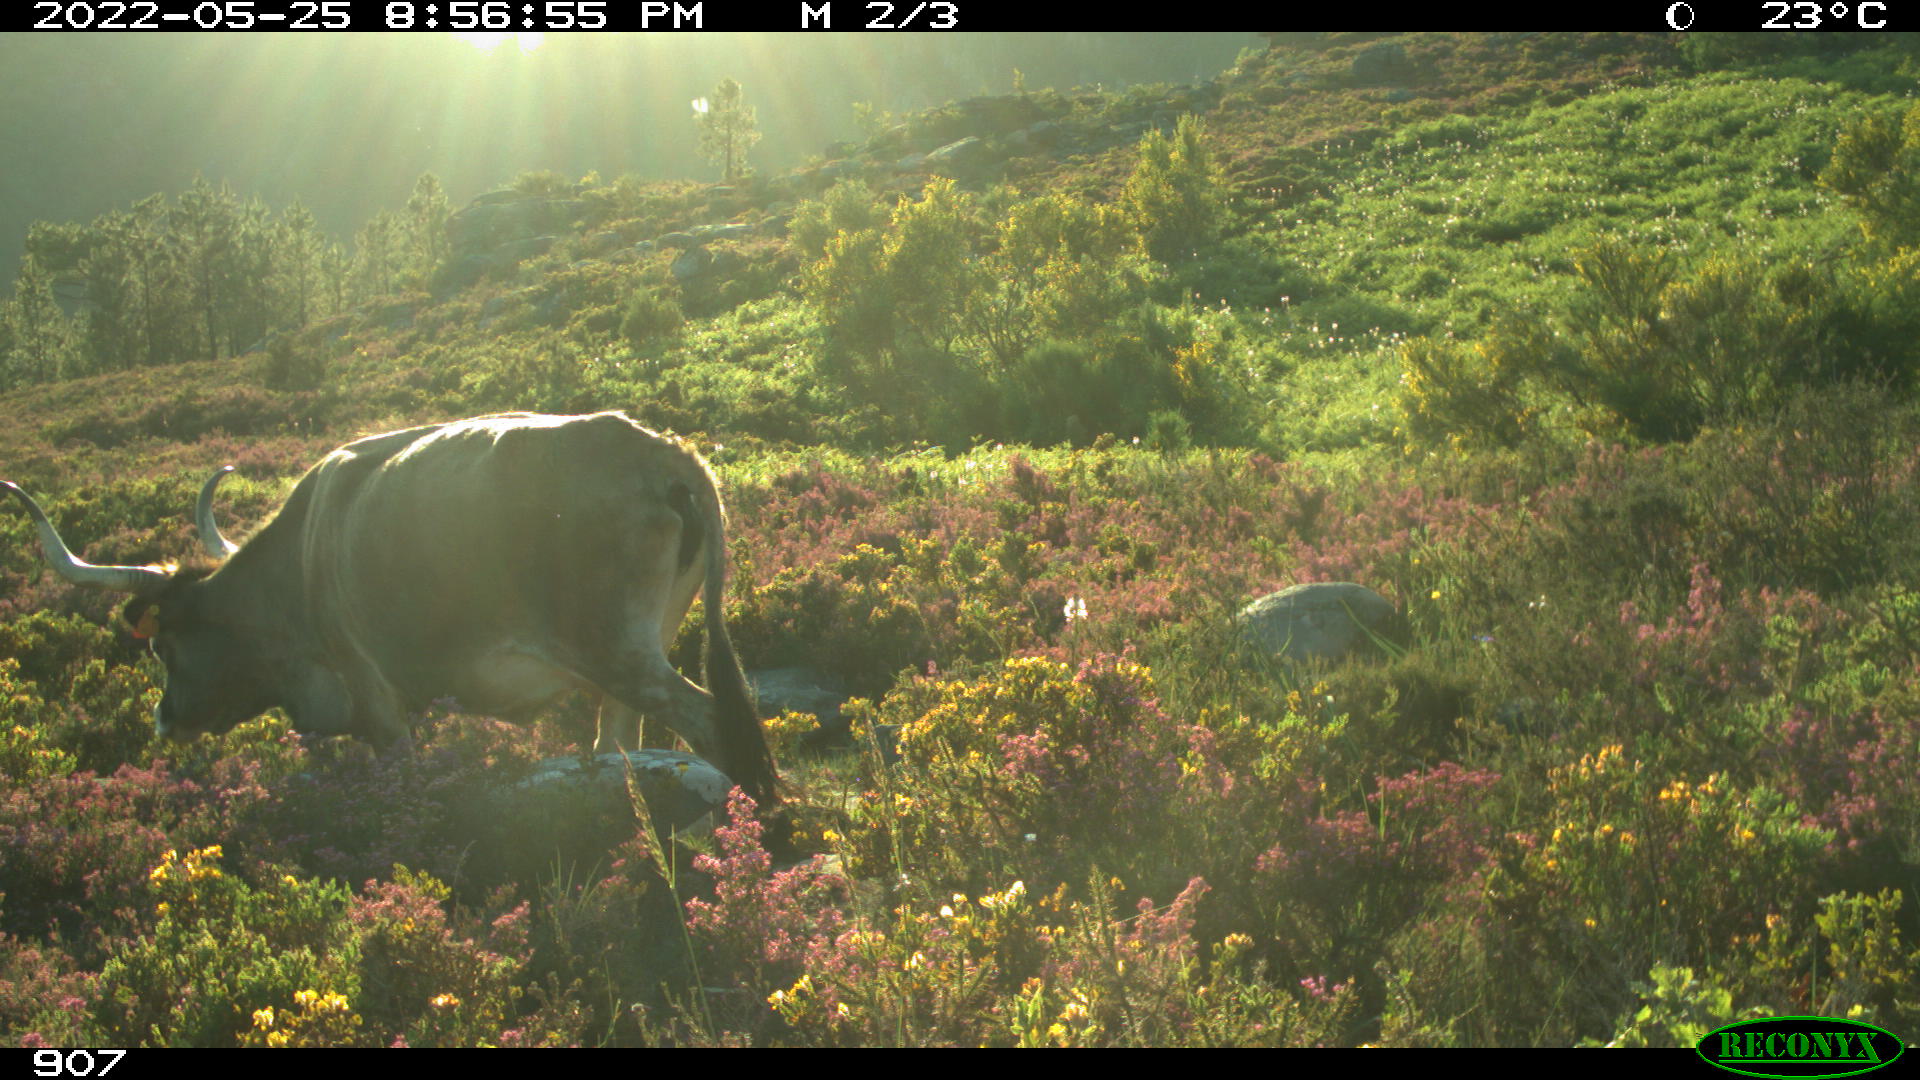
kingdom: Animalia
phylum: Chordata
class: Mammalia
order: Artiodactyla
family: Bovidae
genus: Bos
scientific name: Bos taurus
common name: Domesticated cattle
